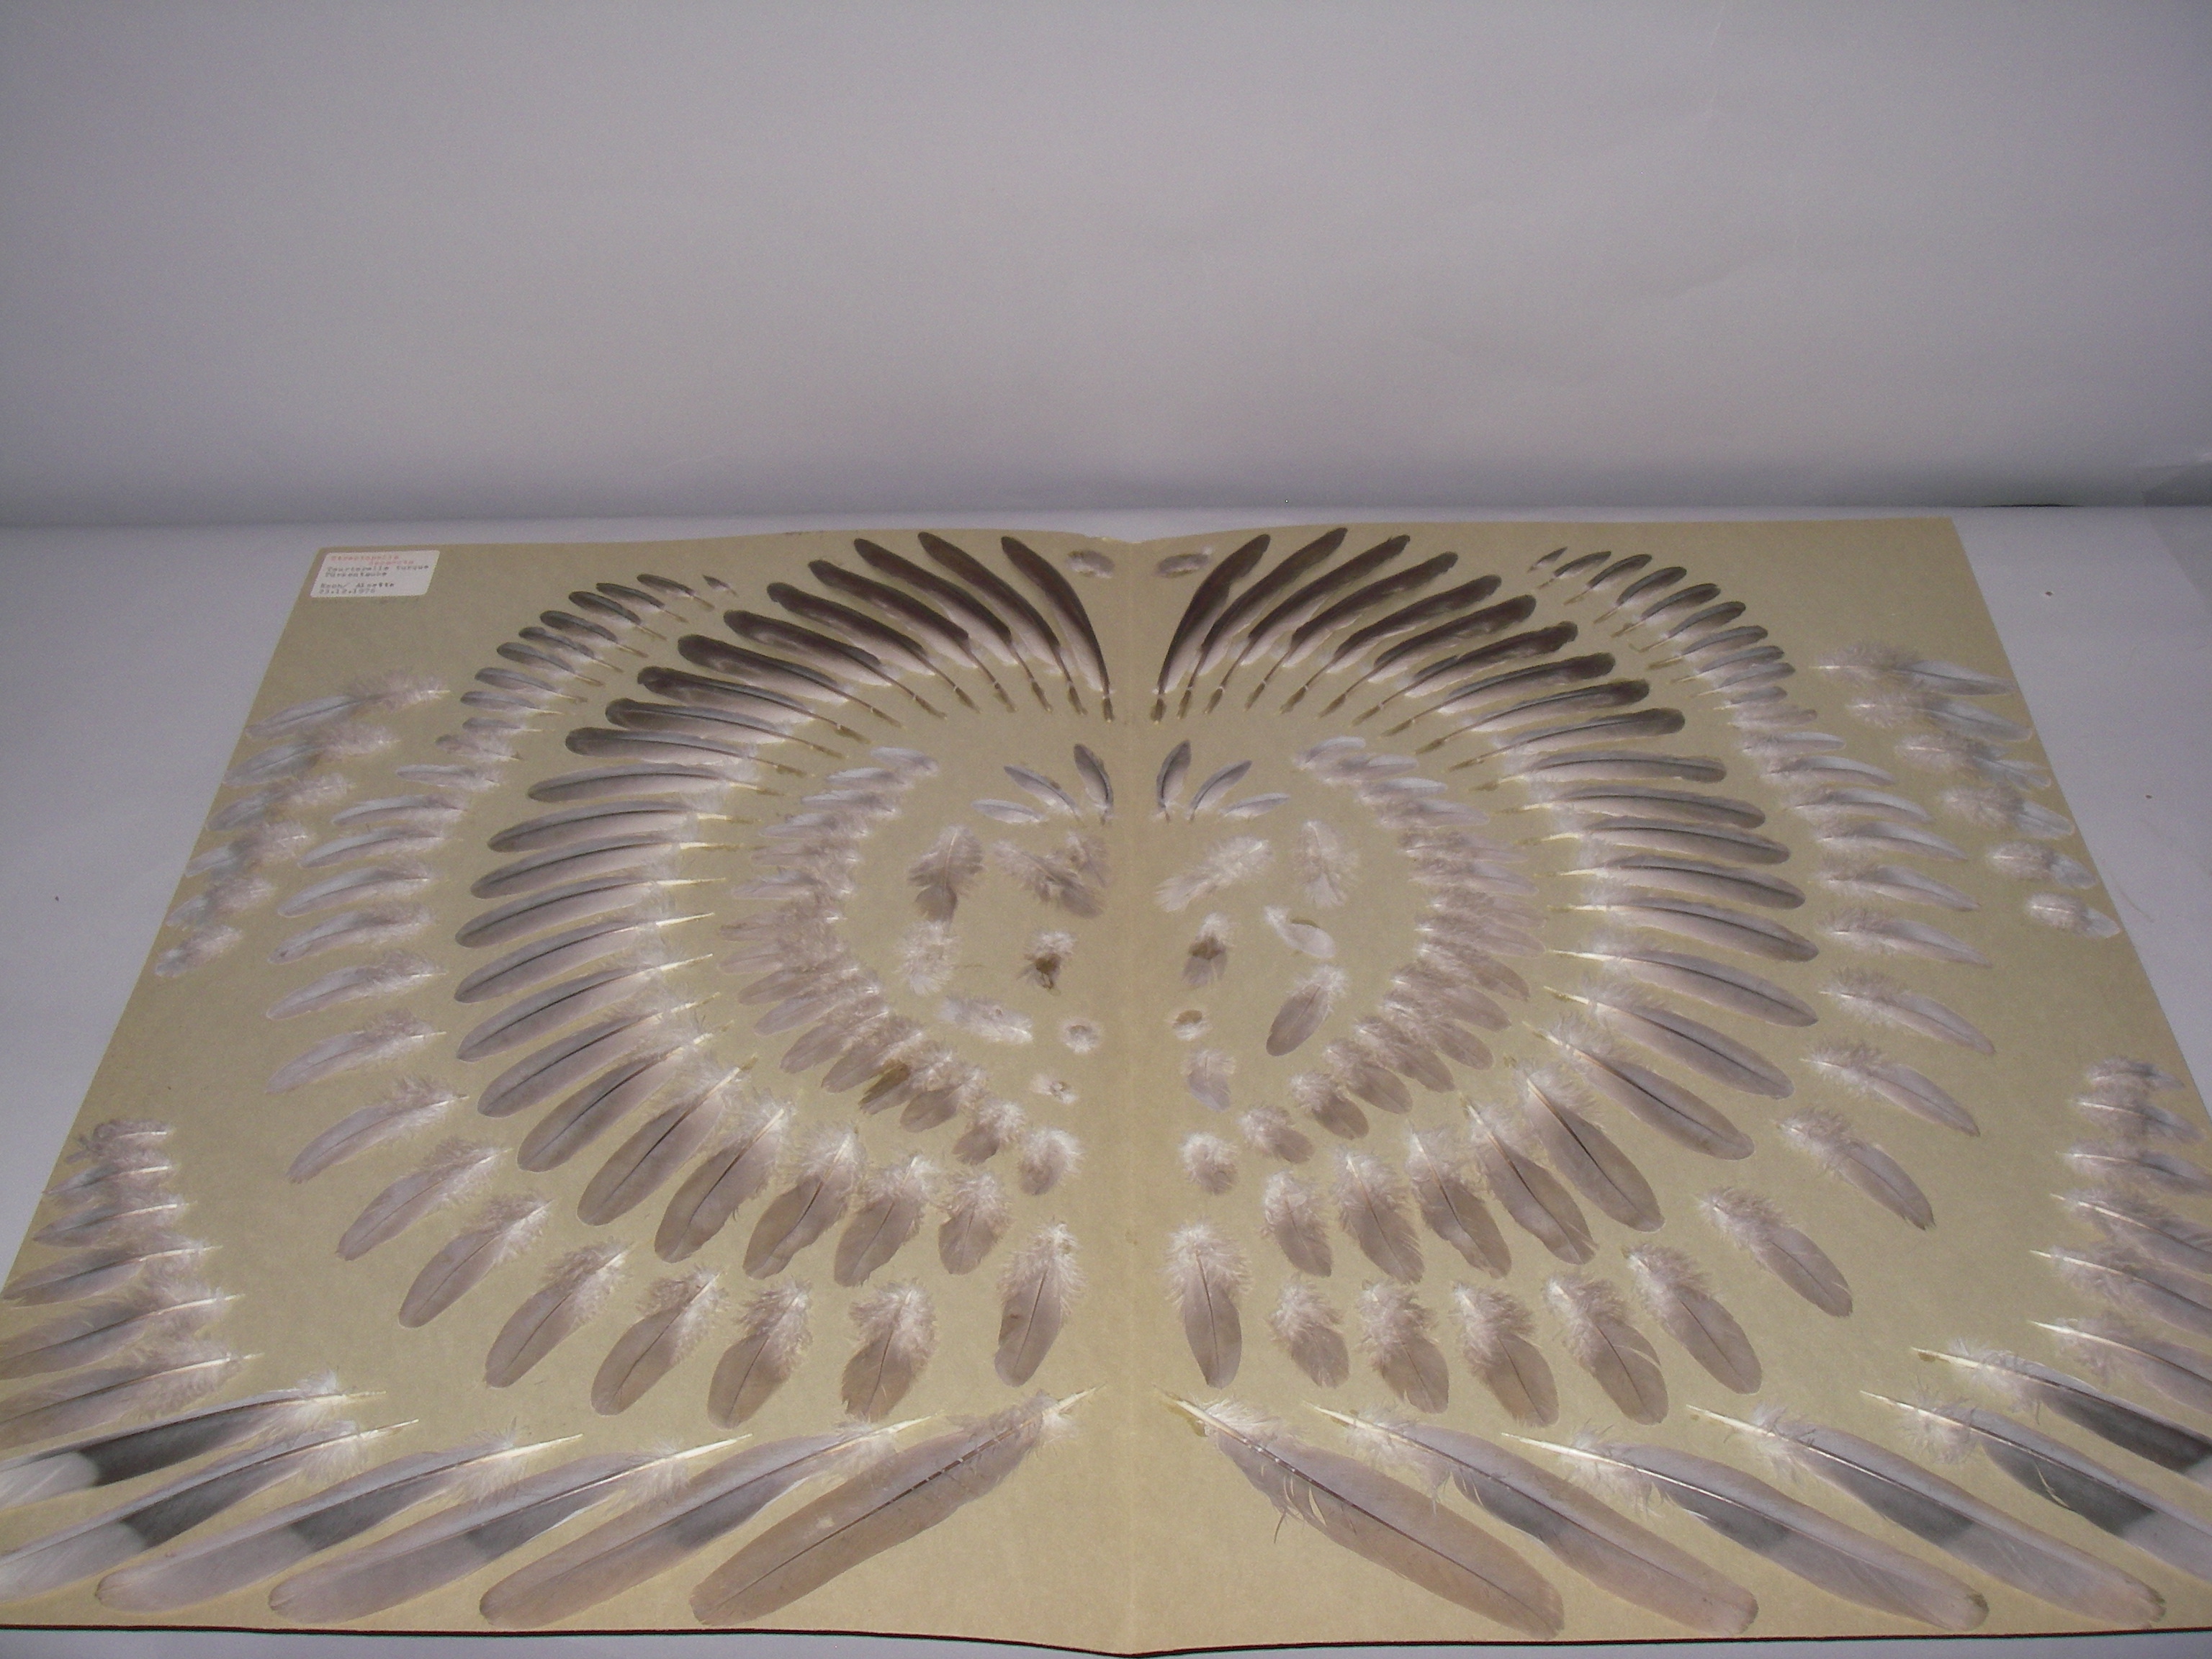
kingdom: Animalia
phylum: Chordata
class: Aves
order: Columbiformes
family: Columbidae
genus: Streptopelia
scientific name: Streptopelia decaocto
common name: Eurasian collared dove
